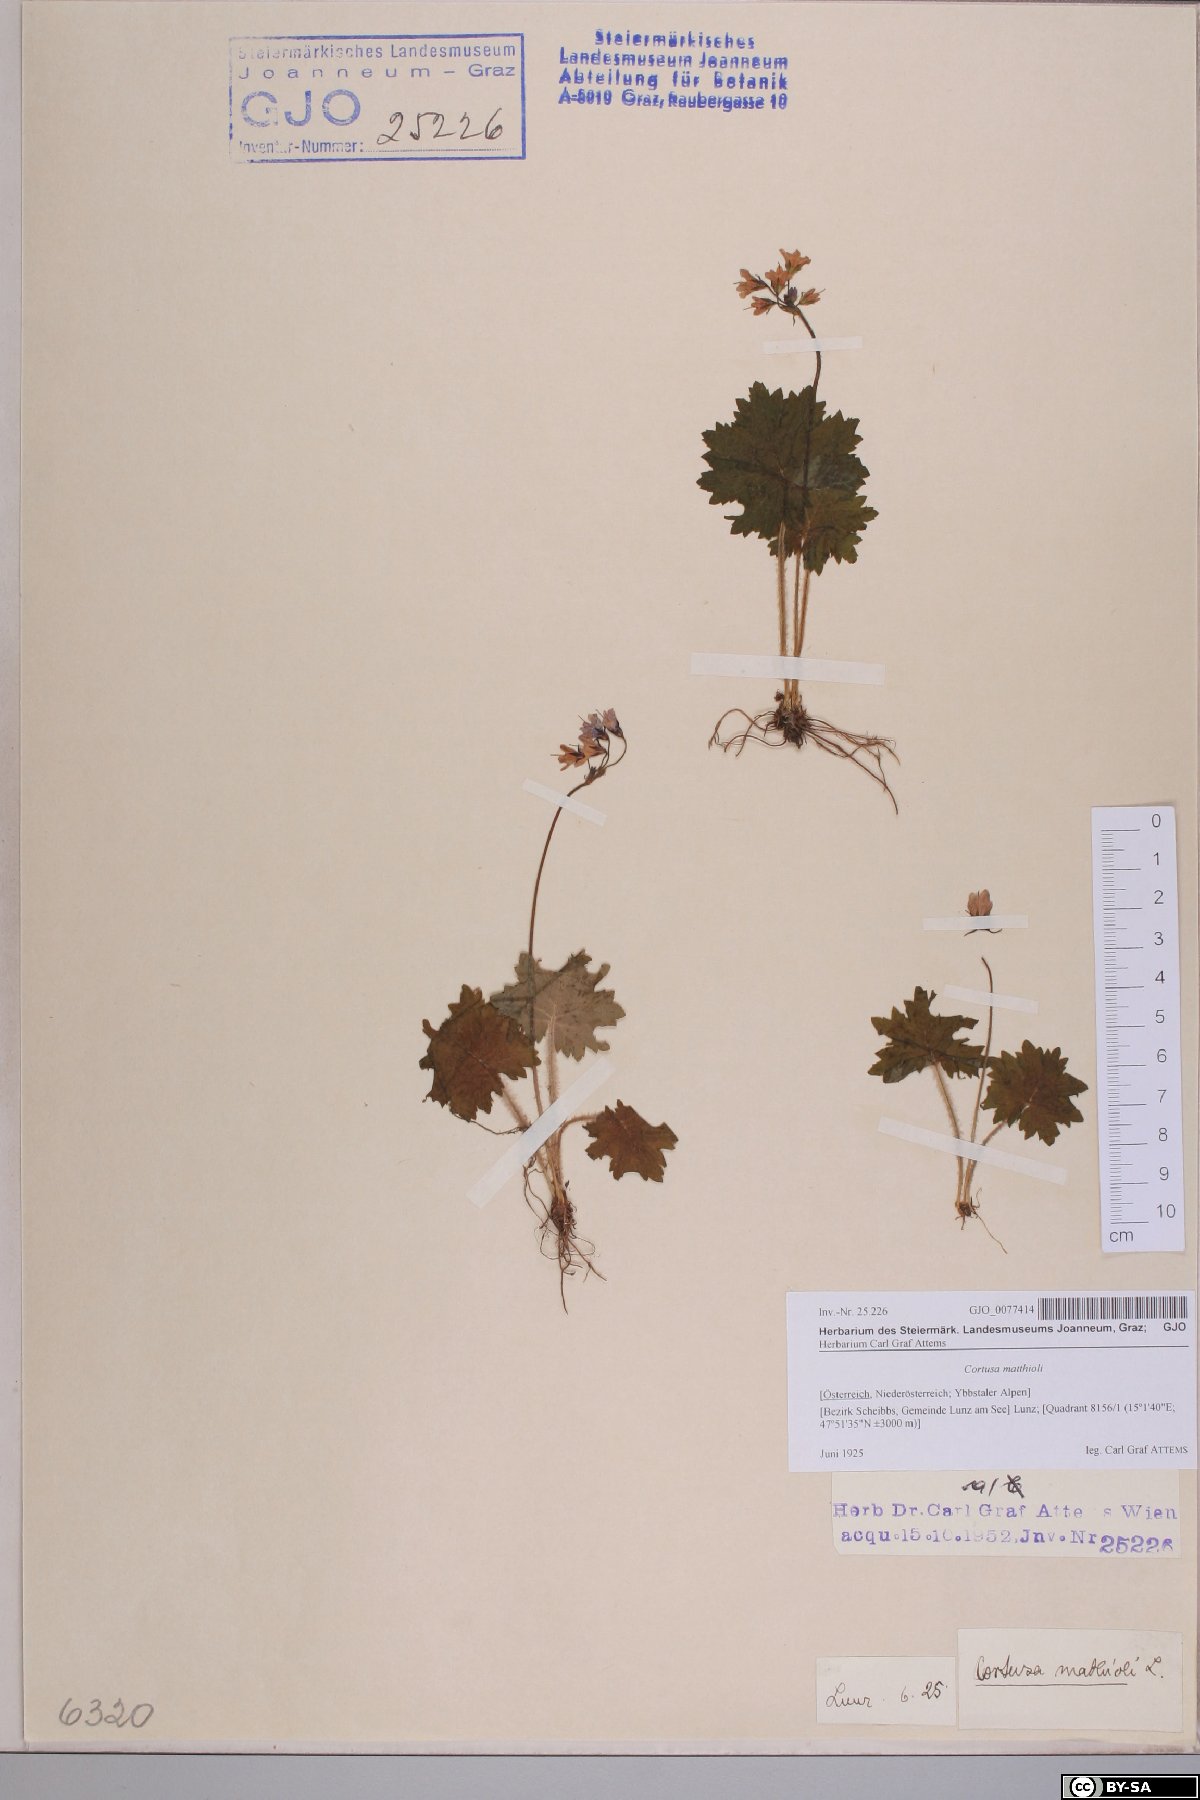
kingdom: Plantae
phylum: Tracheophyta
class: Magnoliopsida
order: Ericales
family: Primulaceae
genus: Primula
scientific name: Primula matthioli
